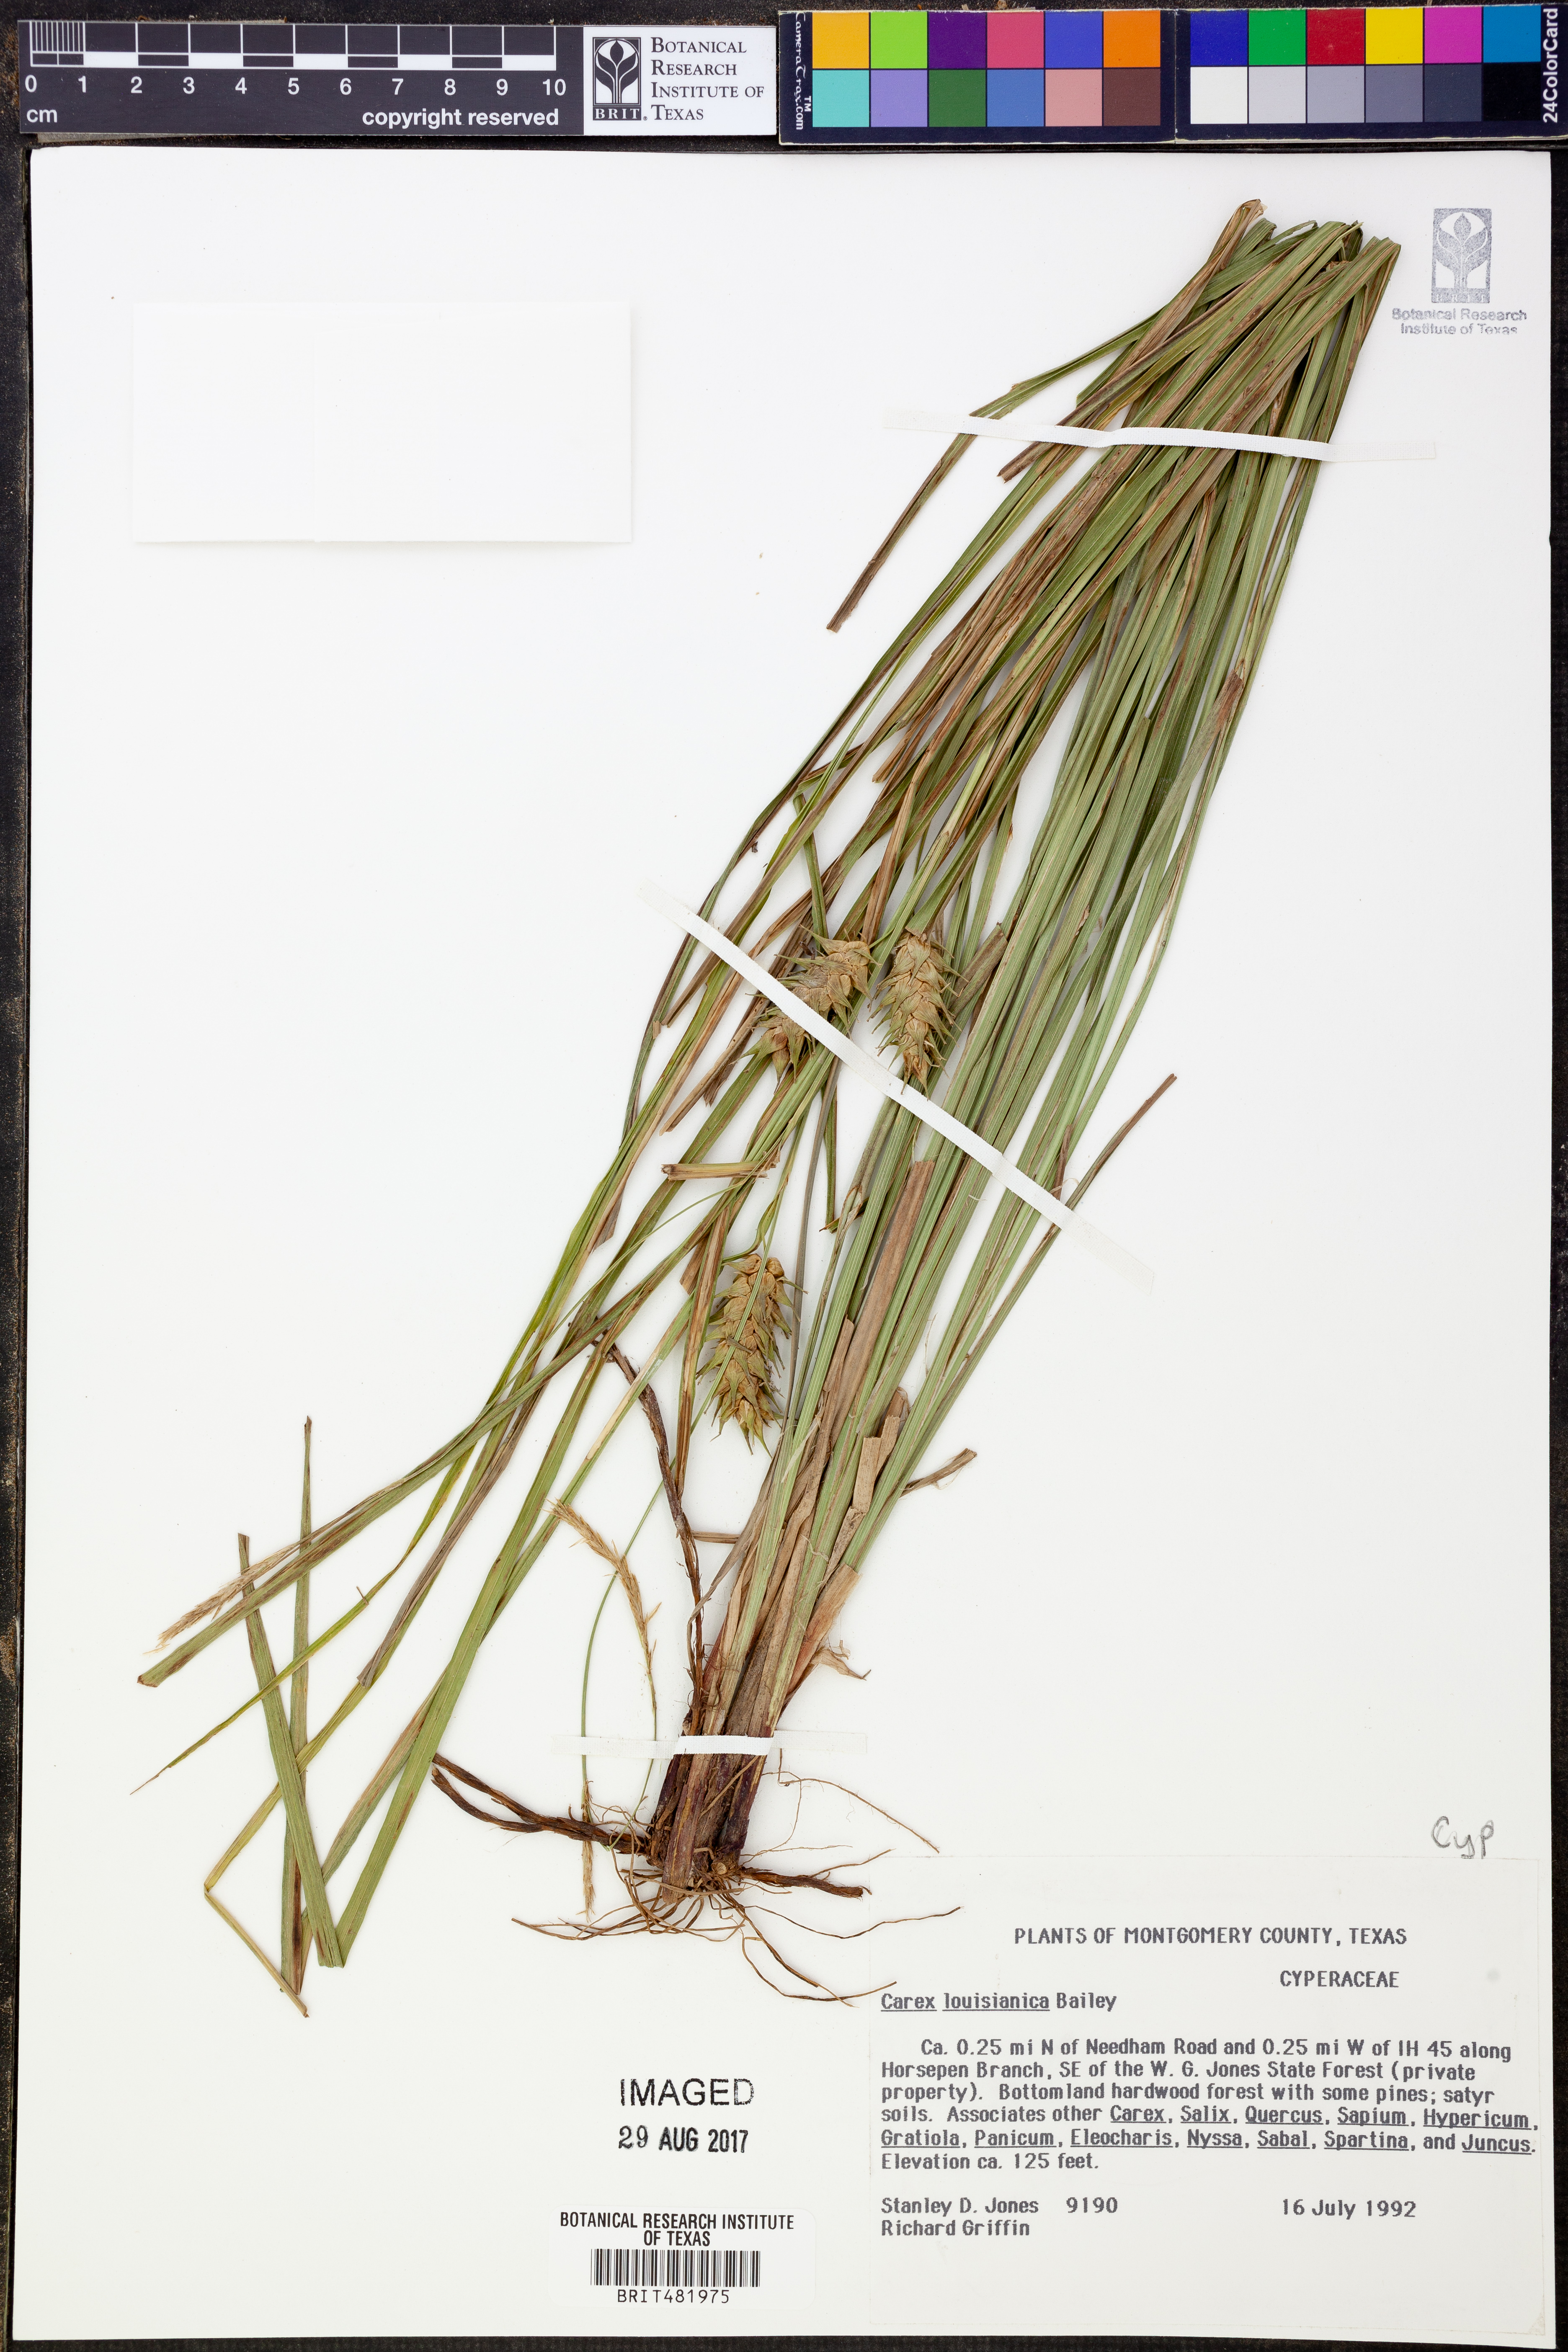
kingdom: Plantae
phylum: Tracheophyta
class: Liliopsida
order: Poales
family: Cyperaceae
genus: Carex
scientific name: Carex louisianica
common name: Louisiana sedge
